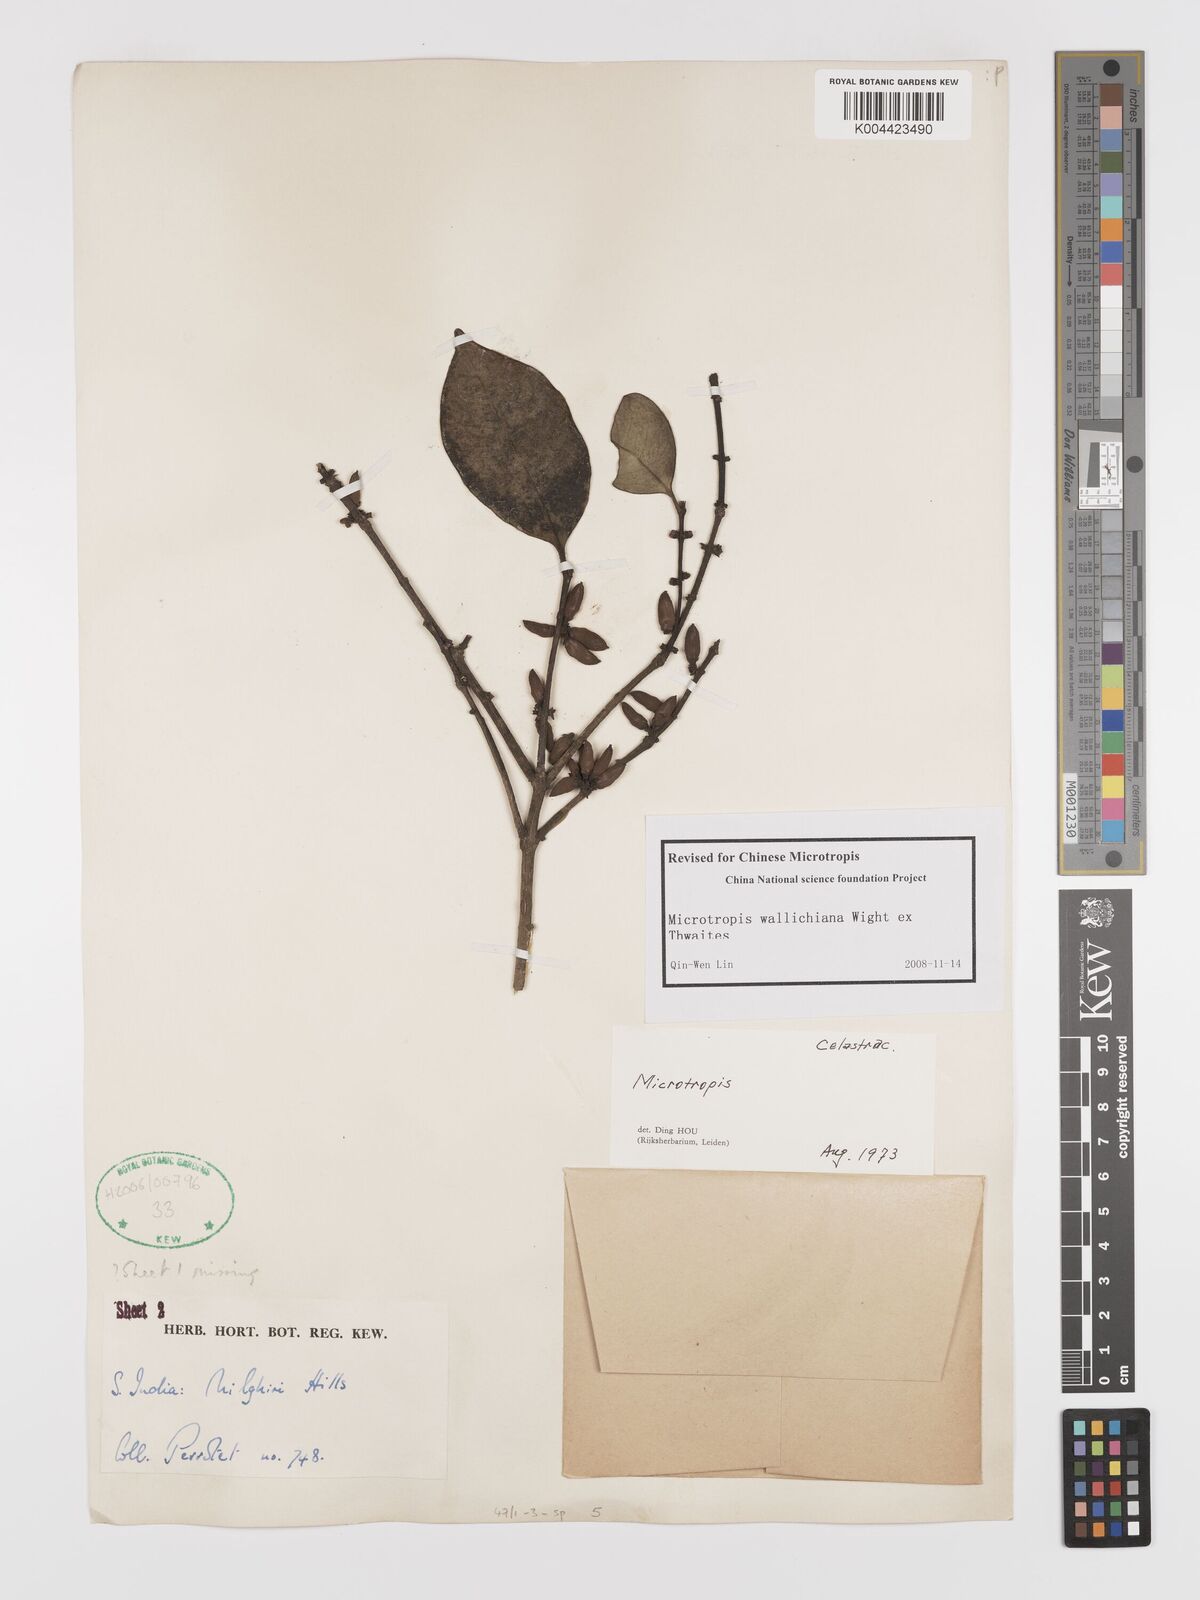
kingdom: Plantae
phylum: Tracheophyta
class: Magnoliopsida
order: Celastrales
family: Celastraceae
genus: Microtropis
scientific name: Microtropis wallichiana
